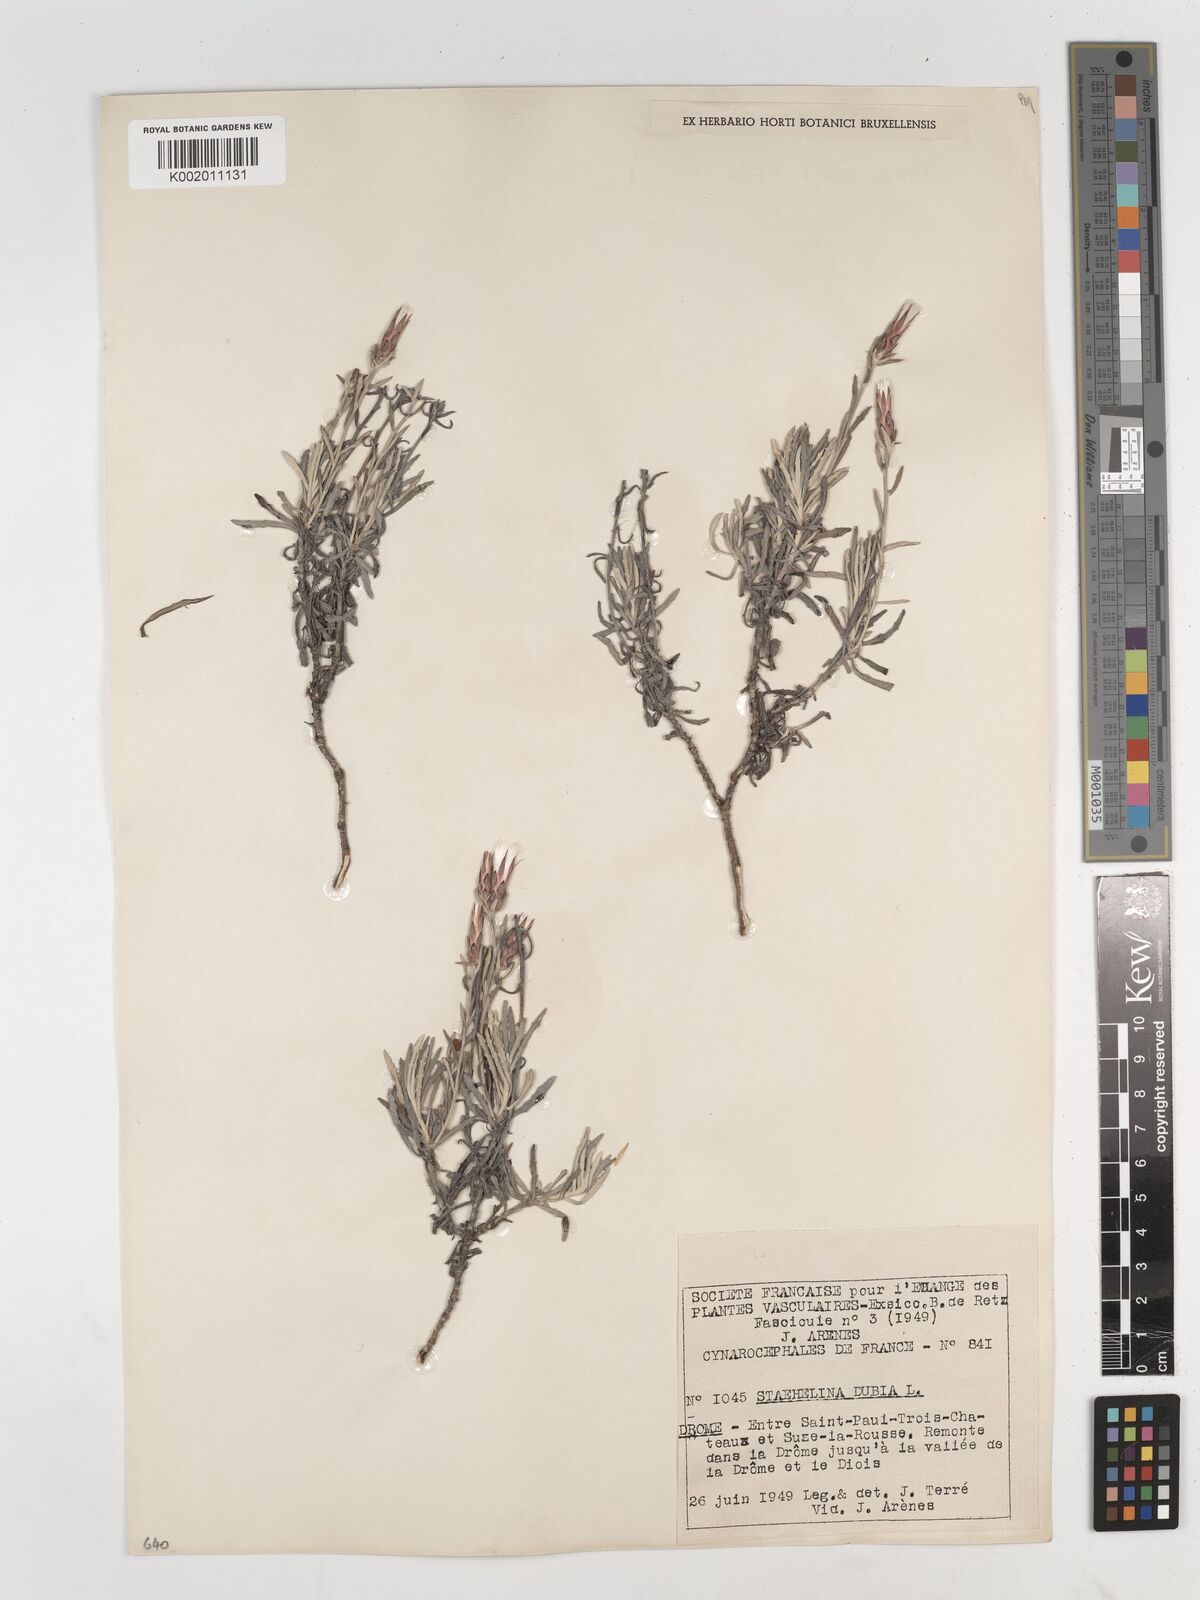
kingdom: Plantae
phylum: Tracheophyta
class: Magnoliopsida
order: Asterales
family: Asteraceae
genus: Staehelina
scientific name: Staehelina dubia
